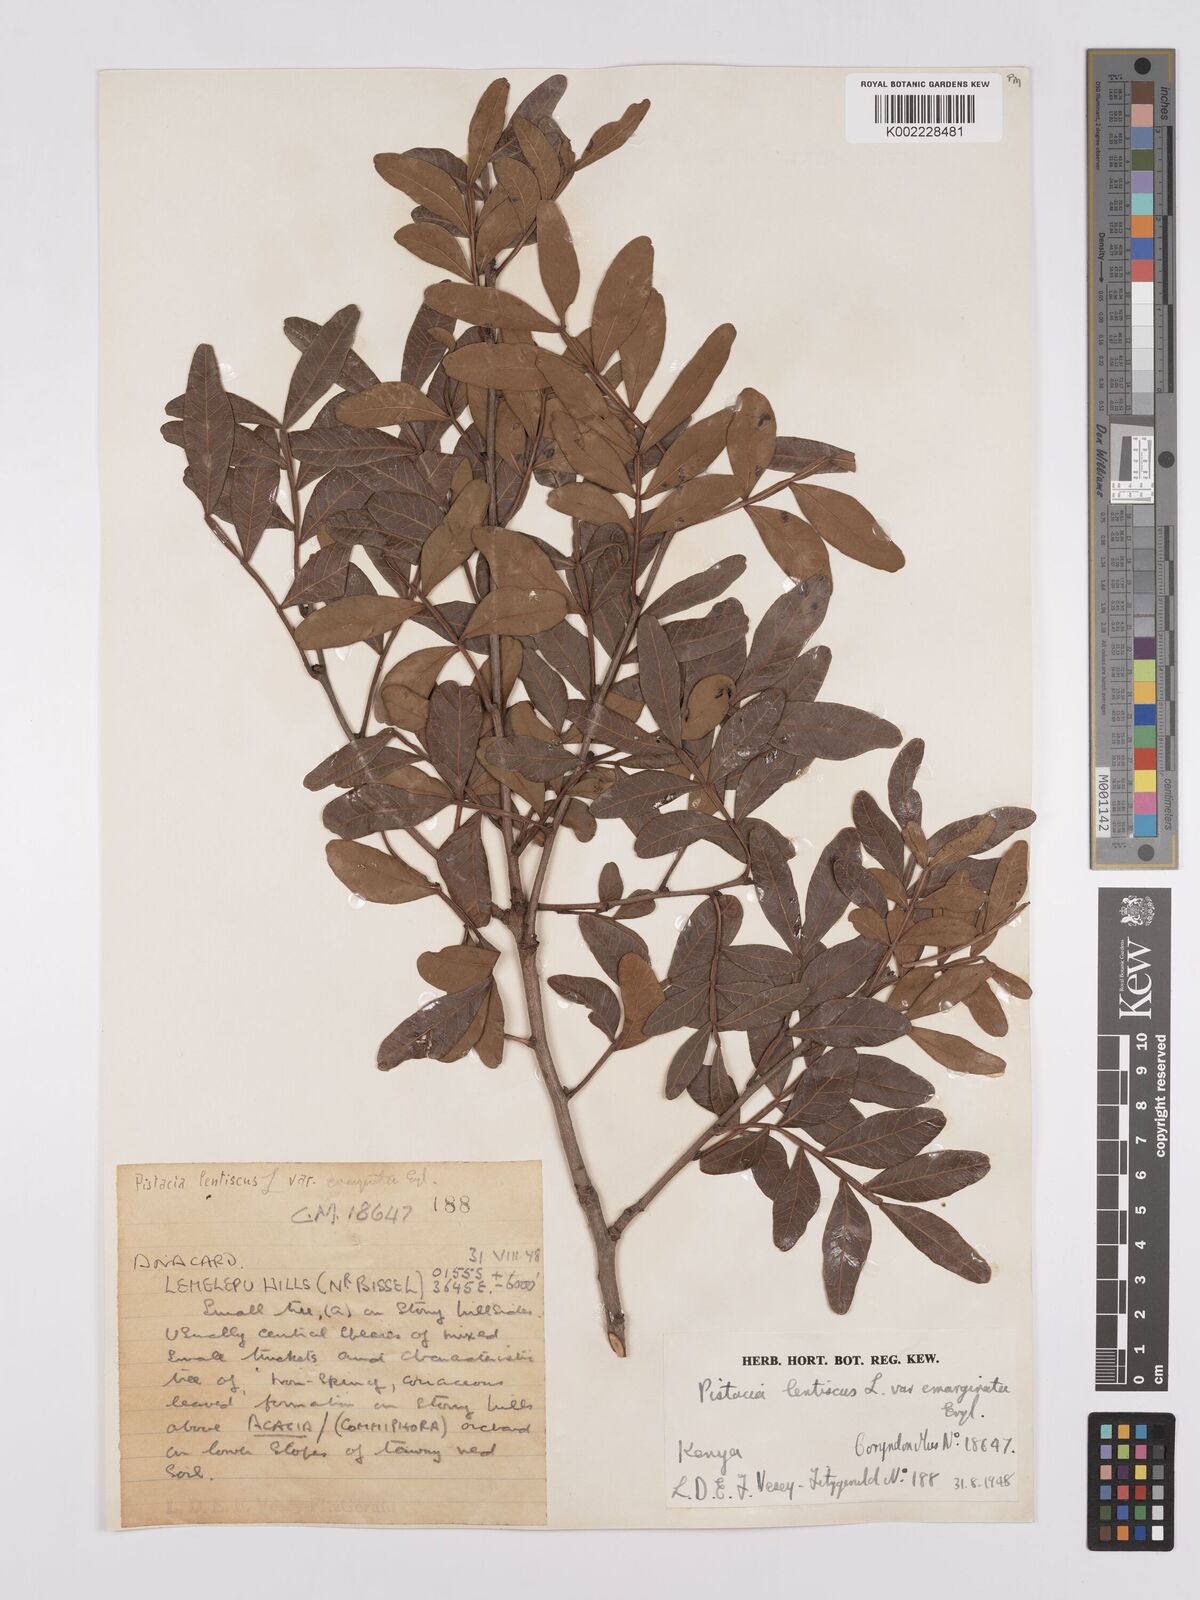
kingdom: Plantae
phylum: Tracheophyta
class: Magnoliopsida
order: Sapindales
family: Anacardiaceae
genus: Pistacia
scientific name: Pistacia lentiscus
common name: Lentisk
